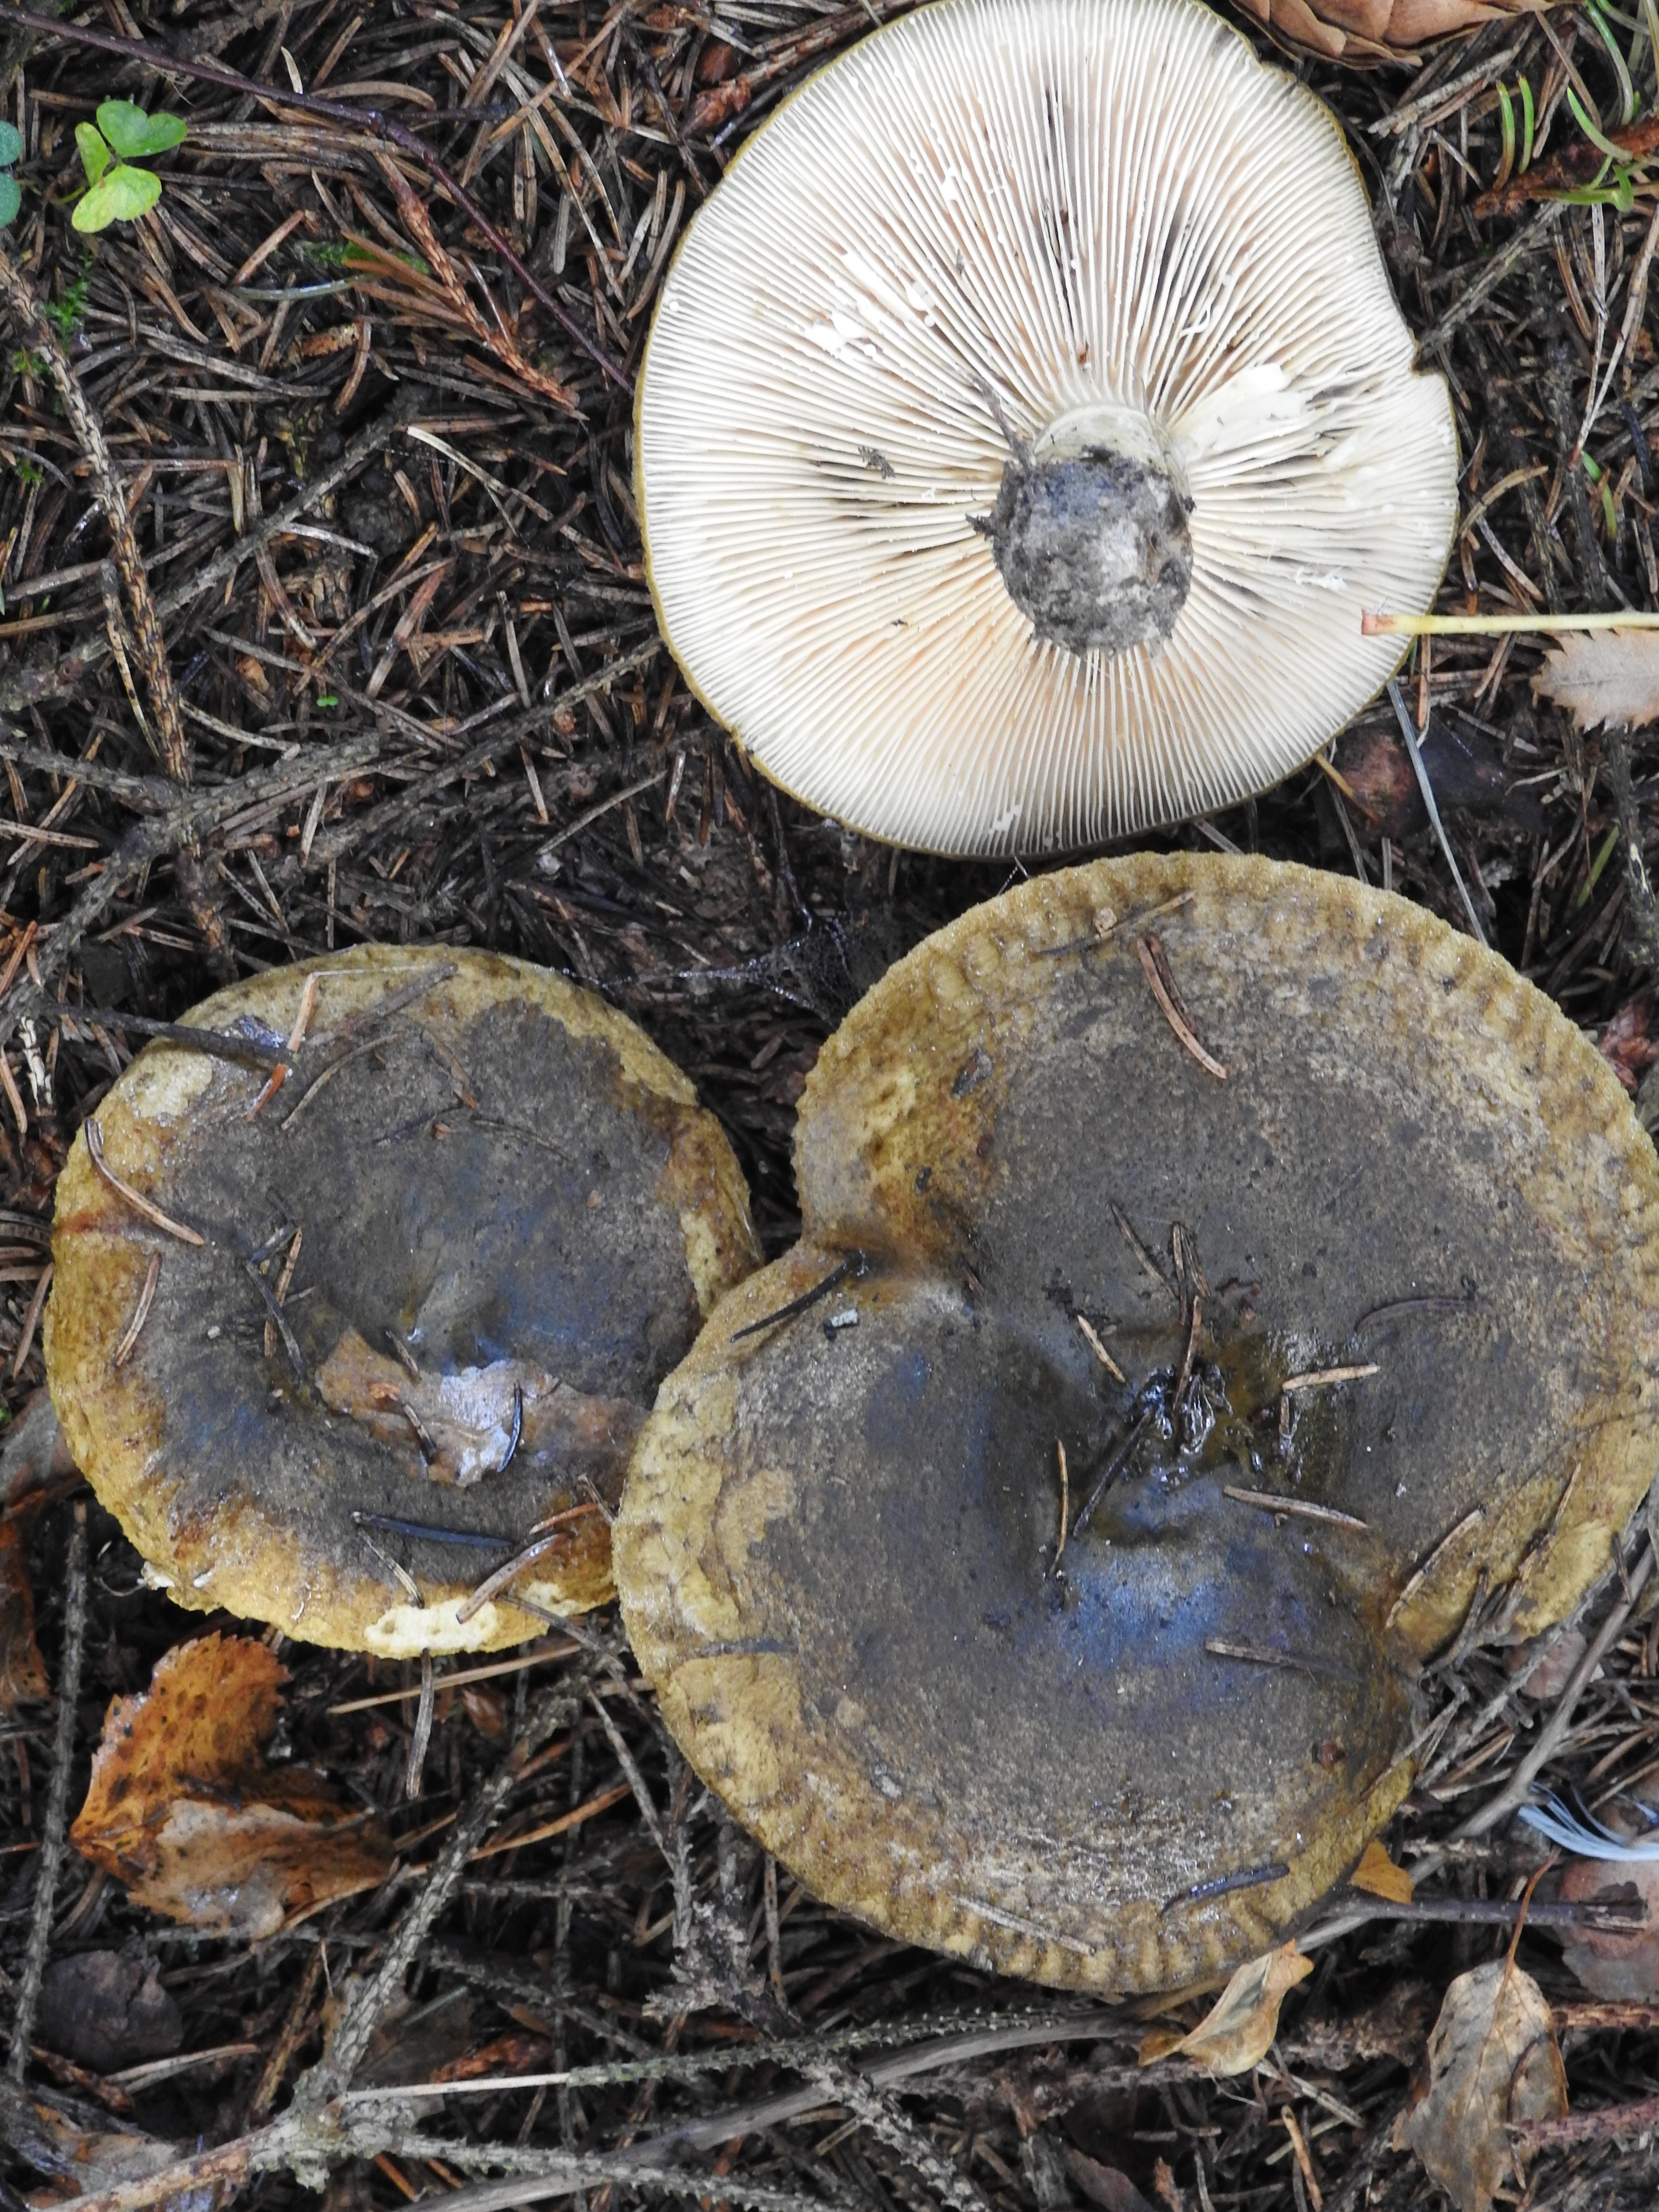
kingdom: Fungi
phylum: Basidiomycota
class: Agaricomycetes
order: Russulales
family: Russulaceae
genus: Lactarius
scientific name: Lactarius turpis
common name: Ugly milk-cap
